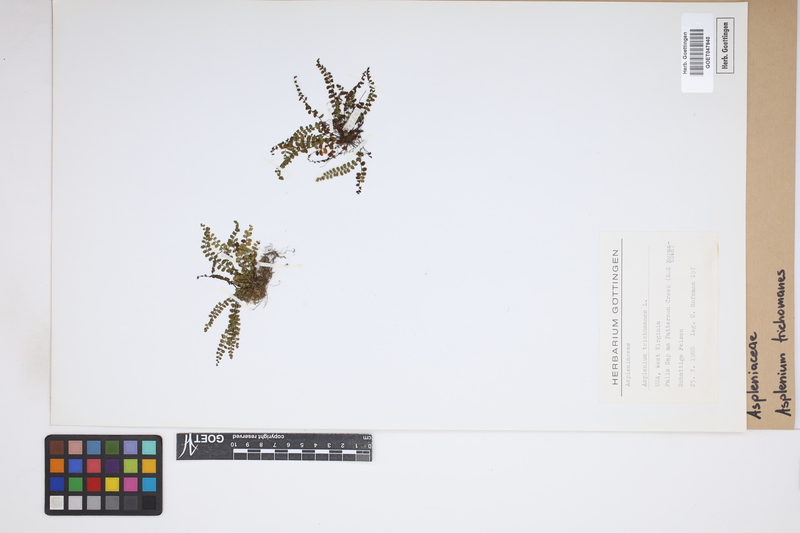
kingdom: Plantae
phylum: Tracheophyta
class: Polypodiopsida
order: Polypodiales
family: Aspleniaceae
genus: Asplenium
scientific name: Asplenium trichomanes
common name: Maidenhair spleenwort
